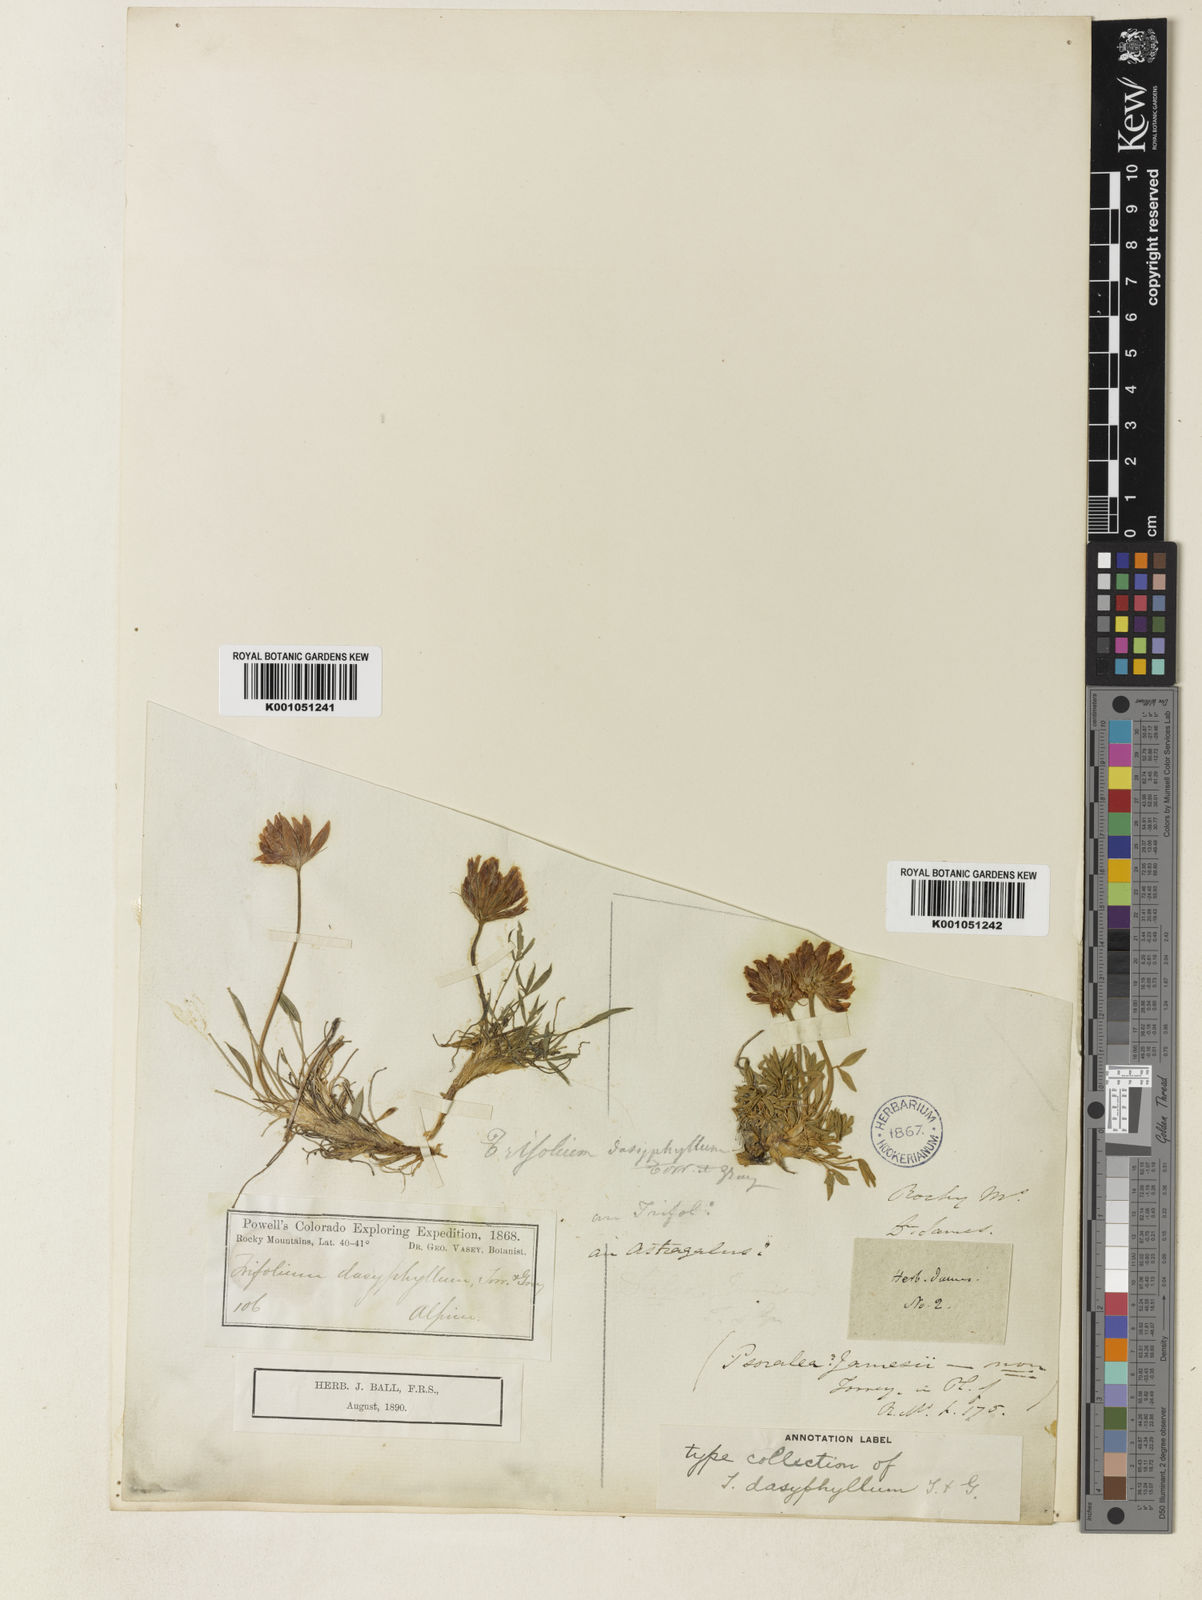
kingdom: Plantae
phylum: Tracheophyta
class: Magnoliopsida
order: Fabales
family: Fabaceae
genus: Trifolium
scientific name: Trifolium dasyphyllum
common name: Whip-root clover
